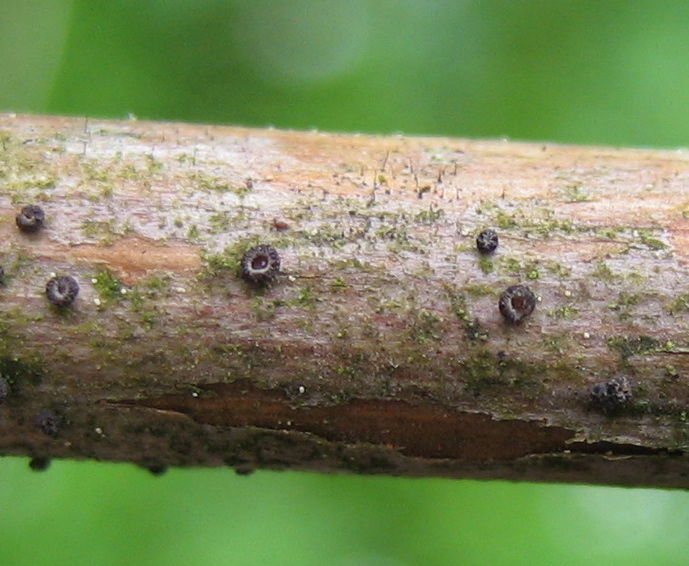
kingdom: Fungi
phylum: Ascomycota
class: Leotiomycetes
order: Helotiales
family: Dermateaceae
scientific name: Dermateaceae
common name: gråskivefamilien
